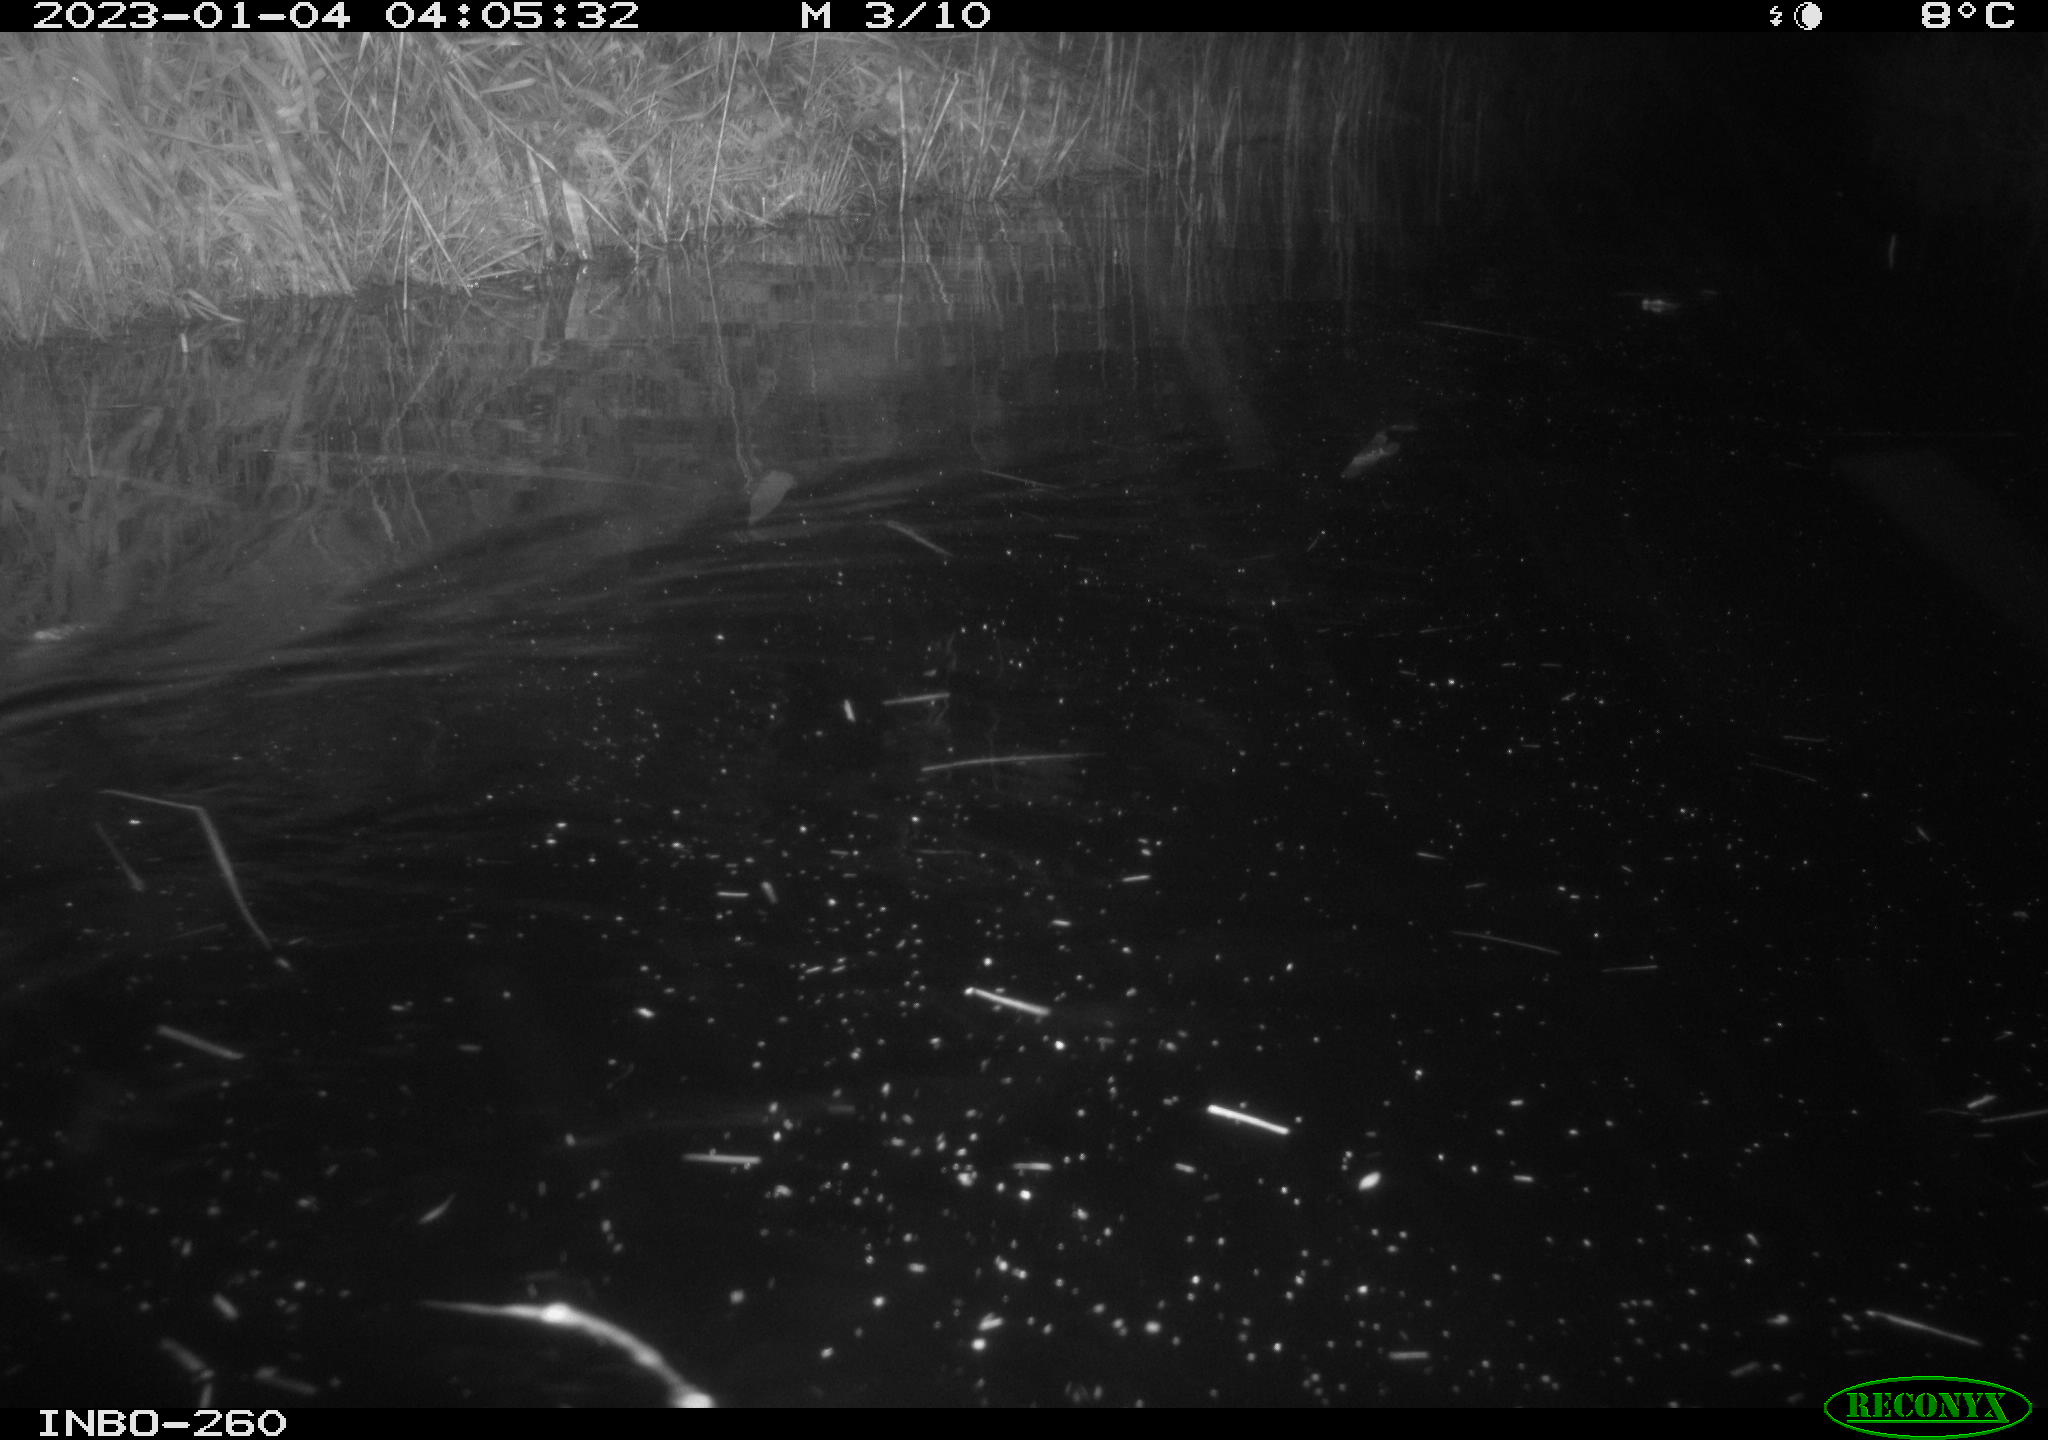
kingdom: Animalia
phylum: Chordata
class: Mammalia
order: Rodentia
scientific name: Rodentia
